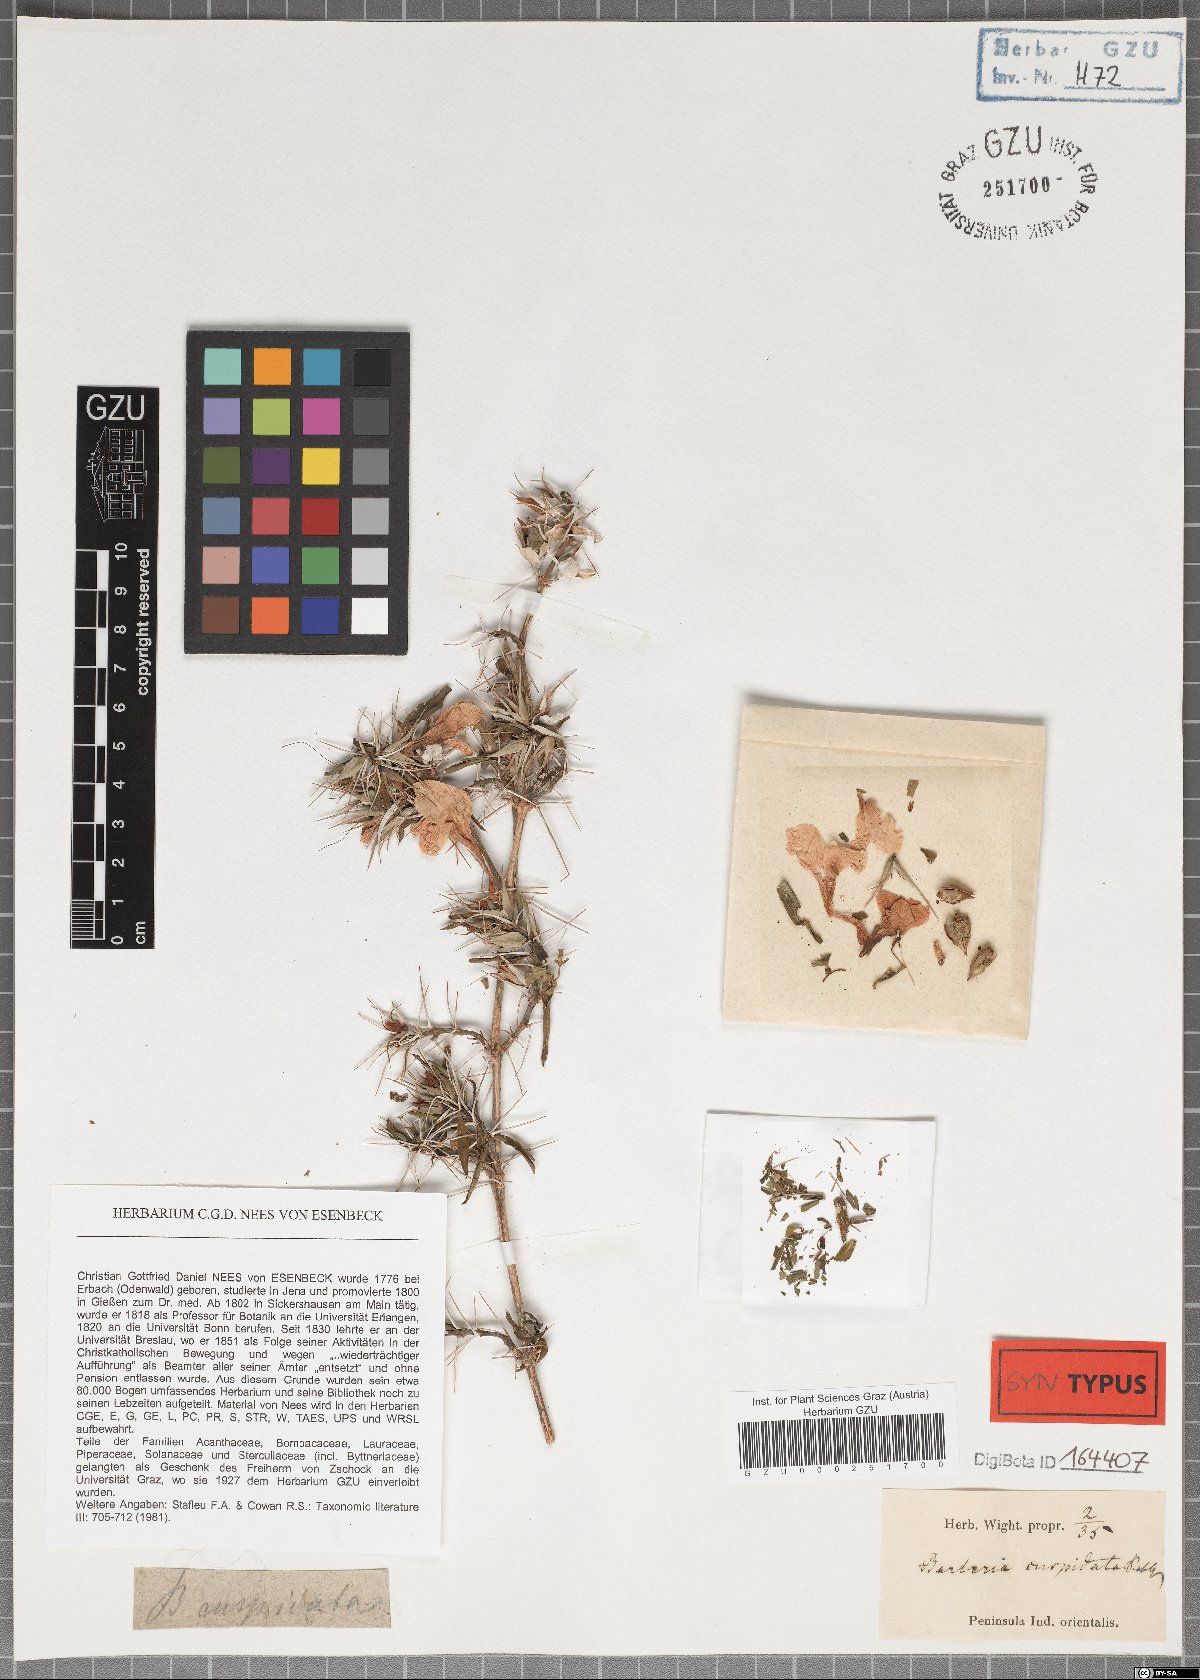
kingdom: Plantae
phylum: Tracheophyta
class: Magnoliopsida
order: Lamiales
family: Acanthaceae
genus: Barleria
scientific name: Barleria cuspidata
